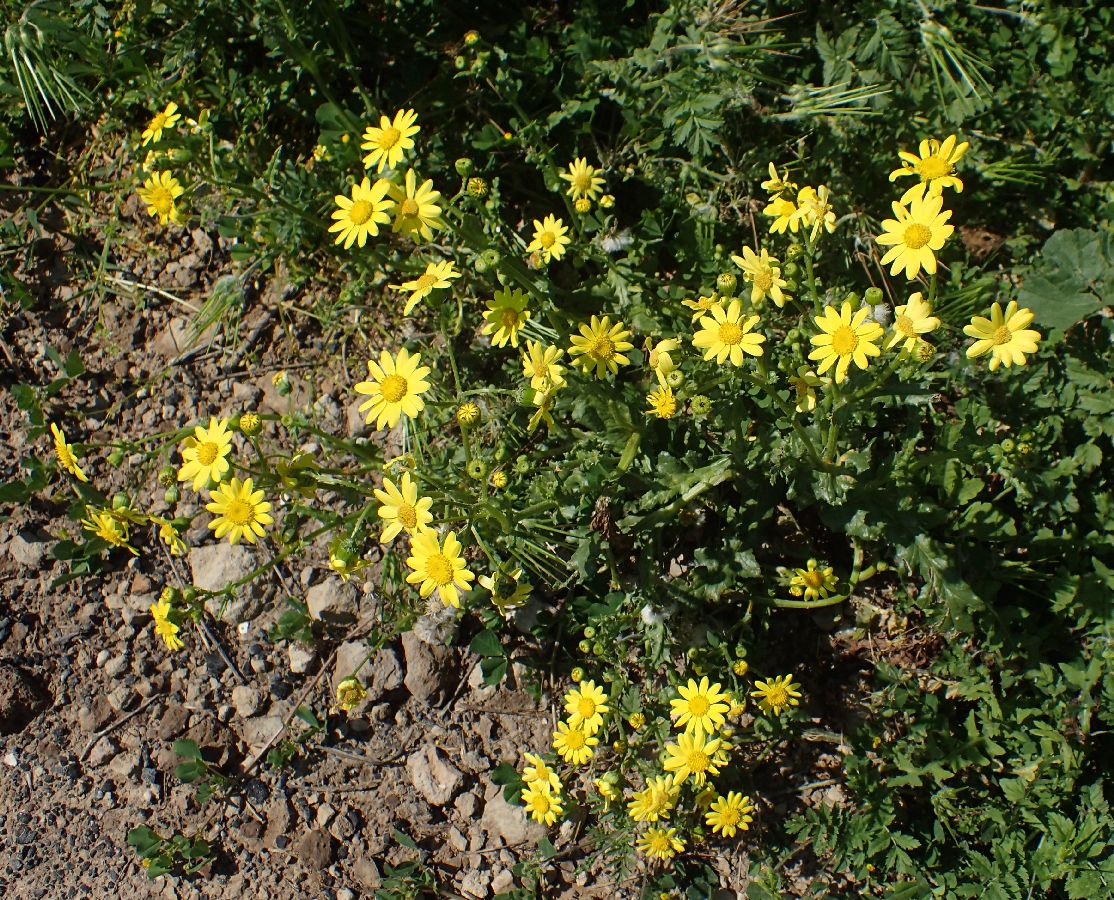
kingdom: Plantae
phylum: Tracheophyta
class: Magnoliopsida
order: Asterales
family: Asteraceae
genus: Senecio
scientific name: Senecio vernalis
